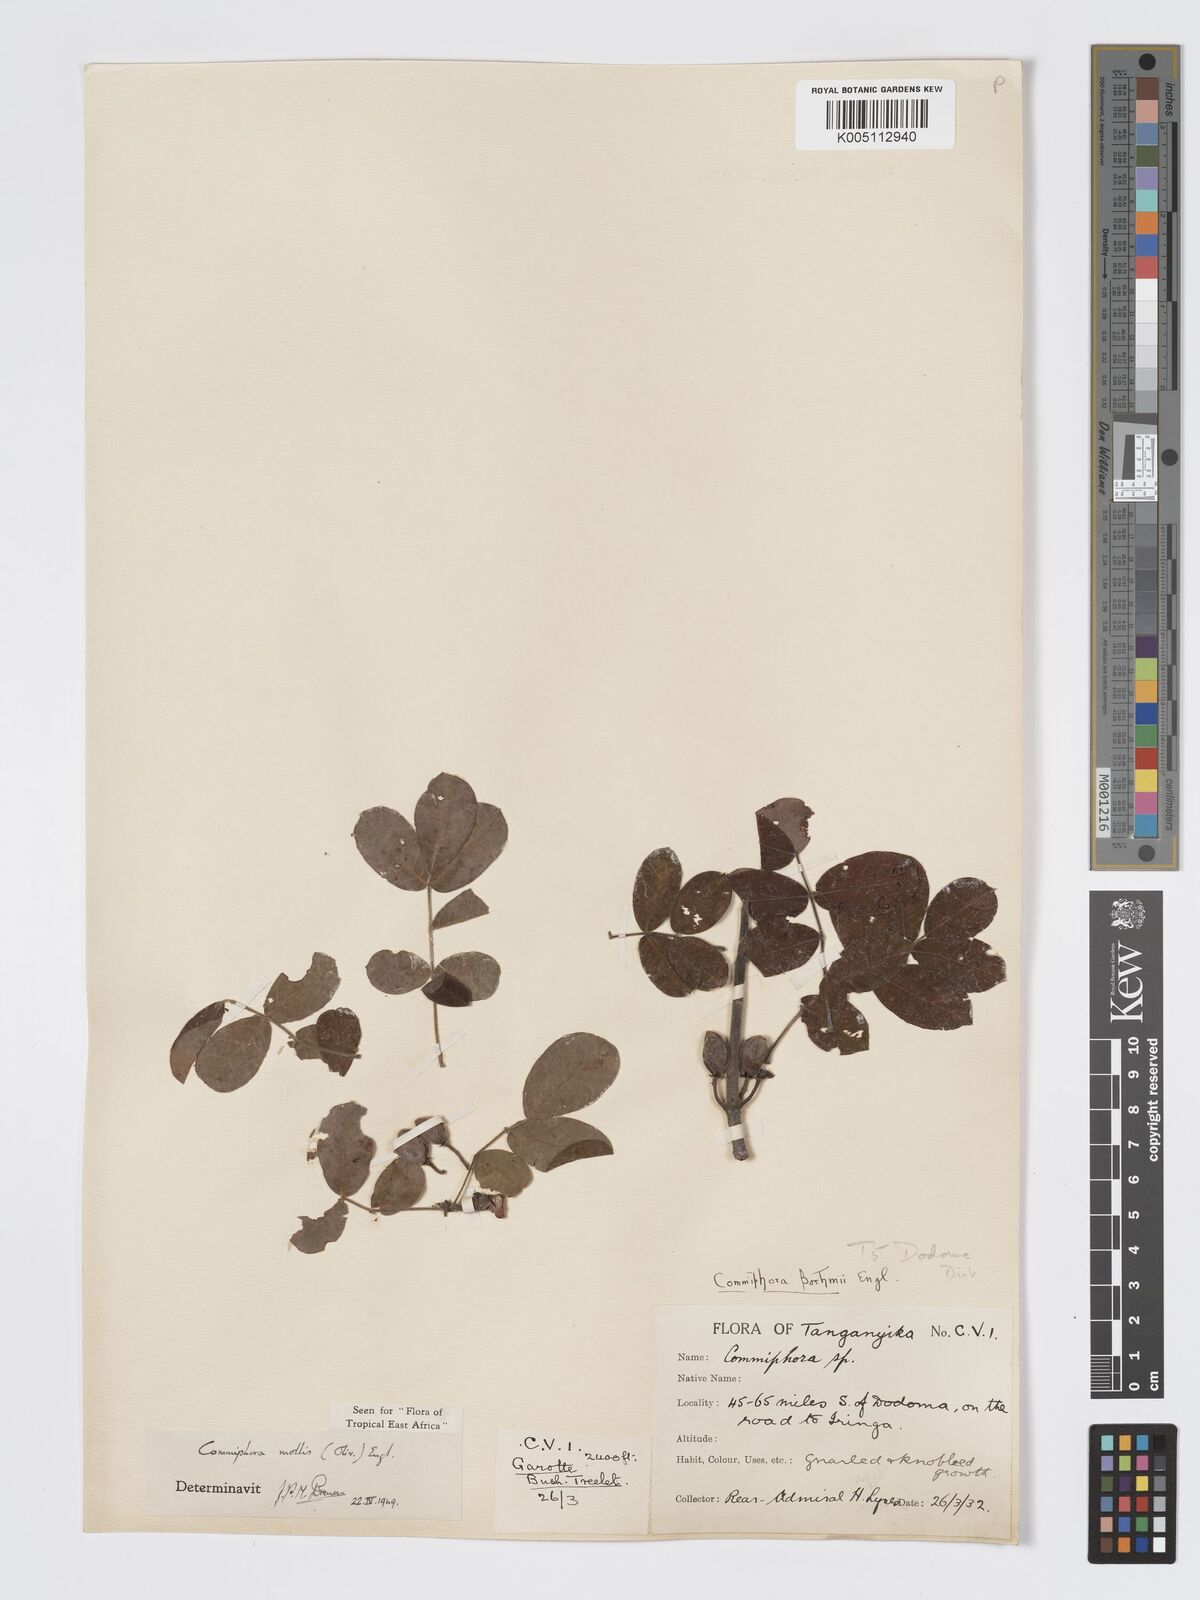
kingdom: Plantae
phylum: Tracheophyta
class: Magnoliopsida
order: Sapindales
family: Burseraceae
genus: Commiphora
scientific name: Commiphora
